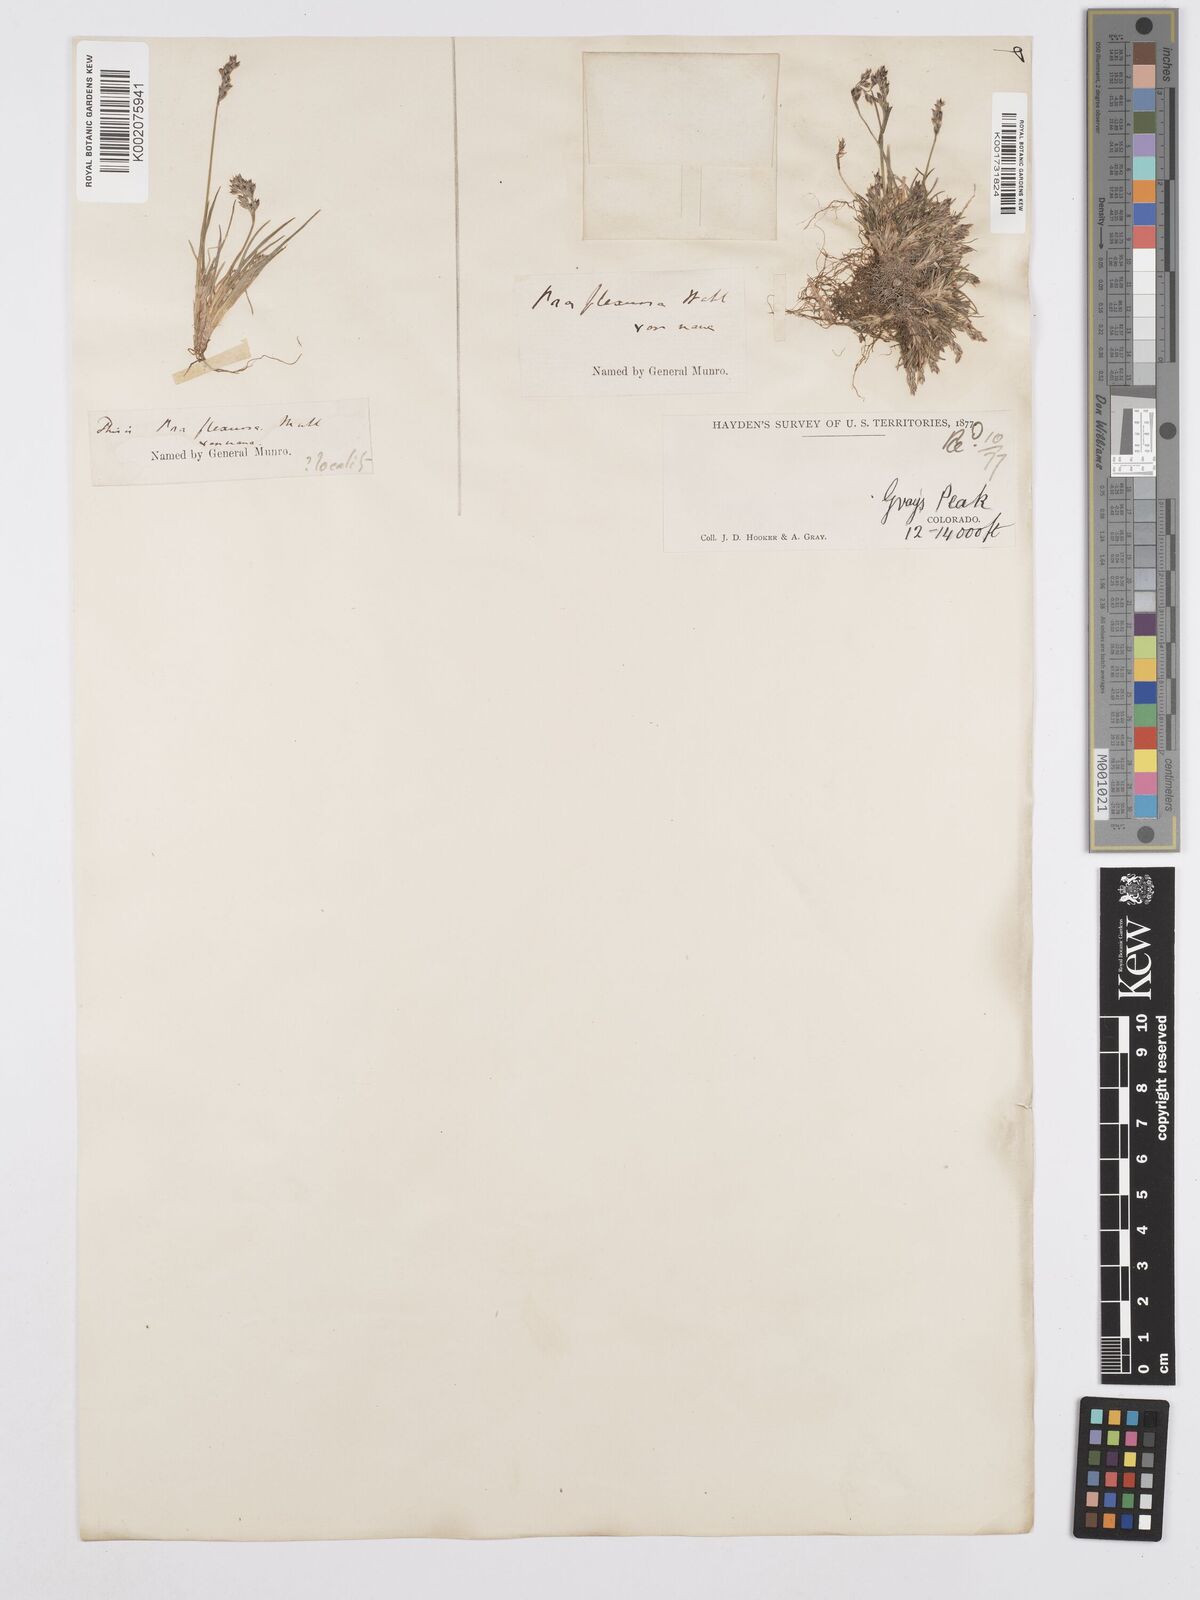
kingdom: Plantae
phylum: Tracheophyta
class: Liliopsida
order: Poales
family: Poaceae
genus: Poa
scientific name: Poa autumnalis
